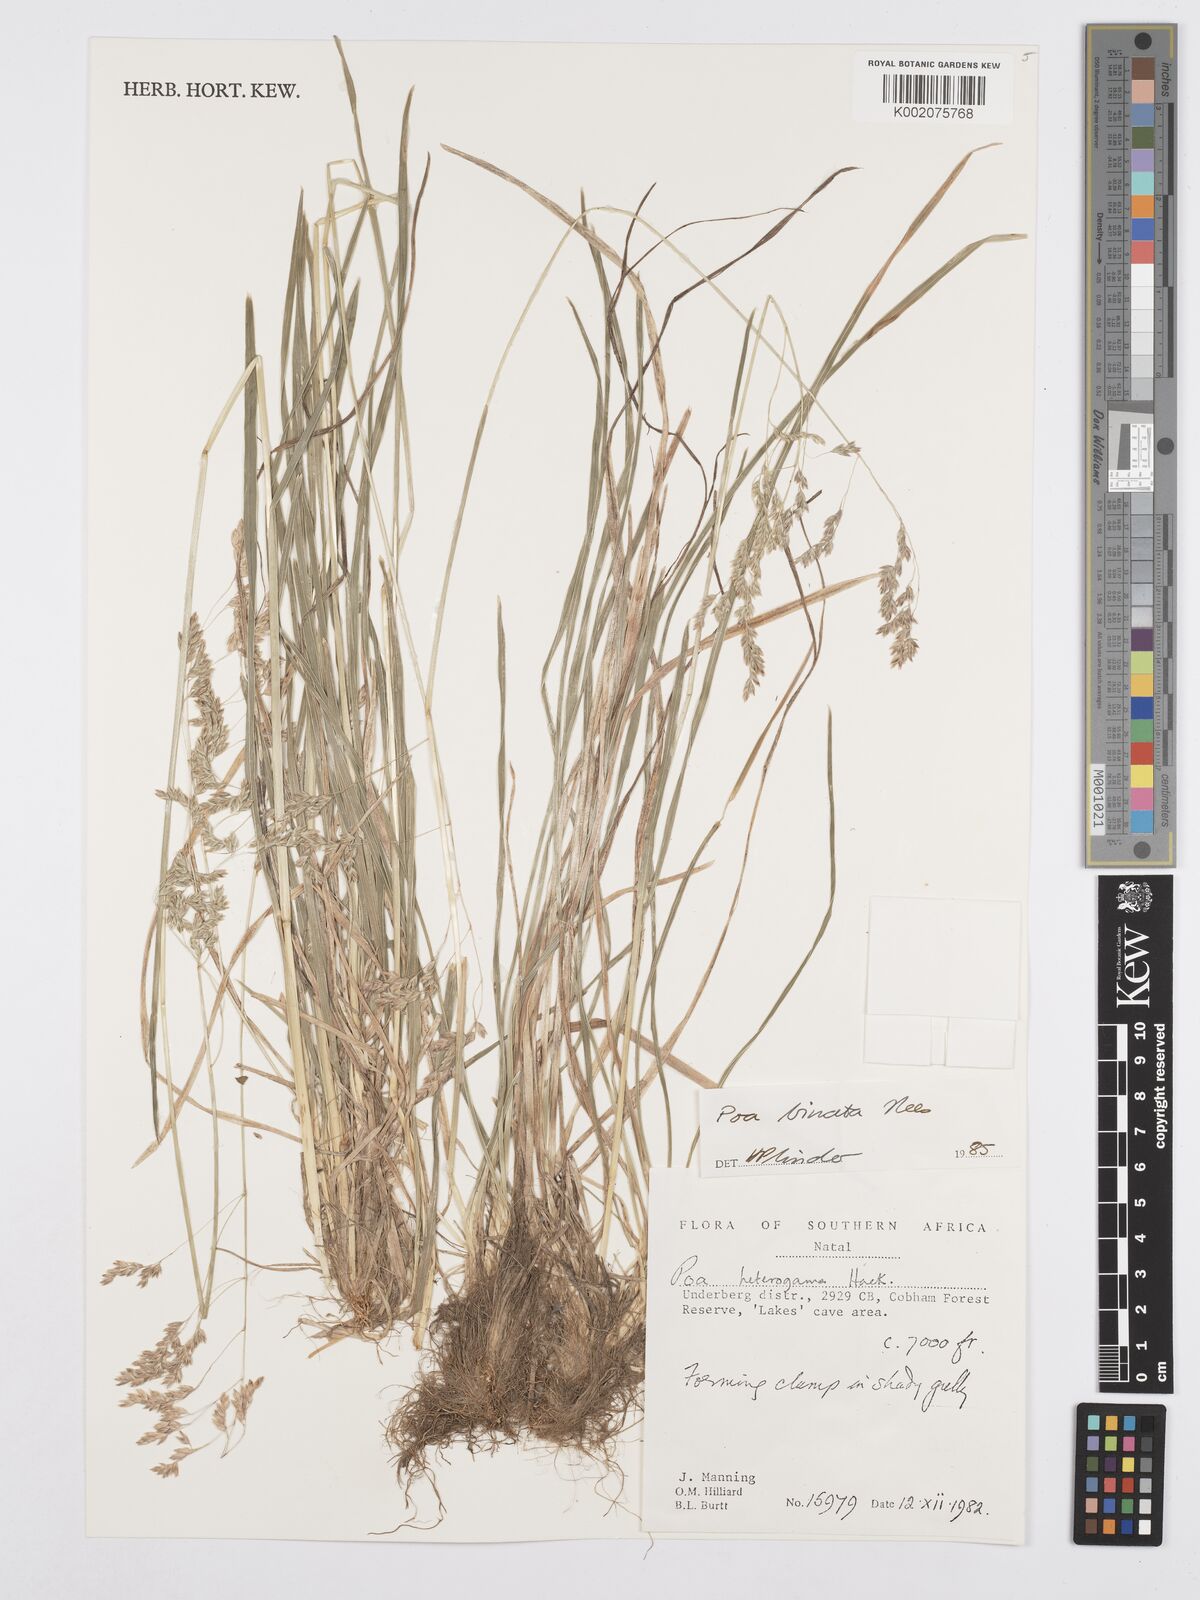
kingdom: Plantae
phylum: Tracheophyta
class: Liliopsida
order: Poales
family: Poaceae
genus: Poa
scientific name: Poa binata
